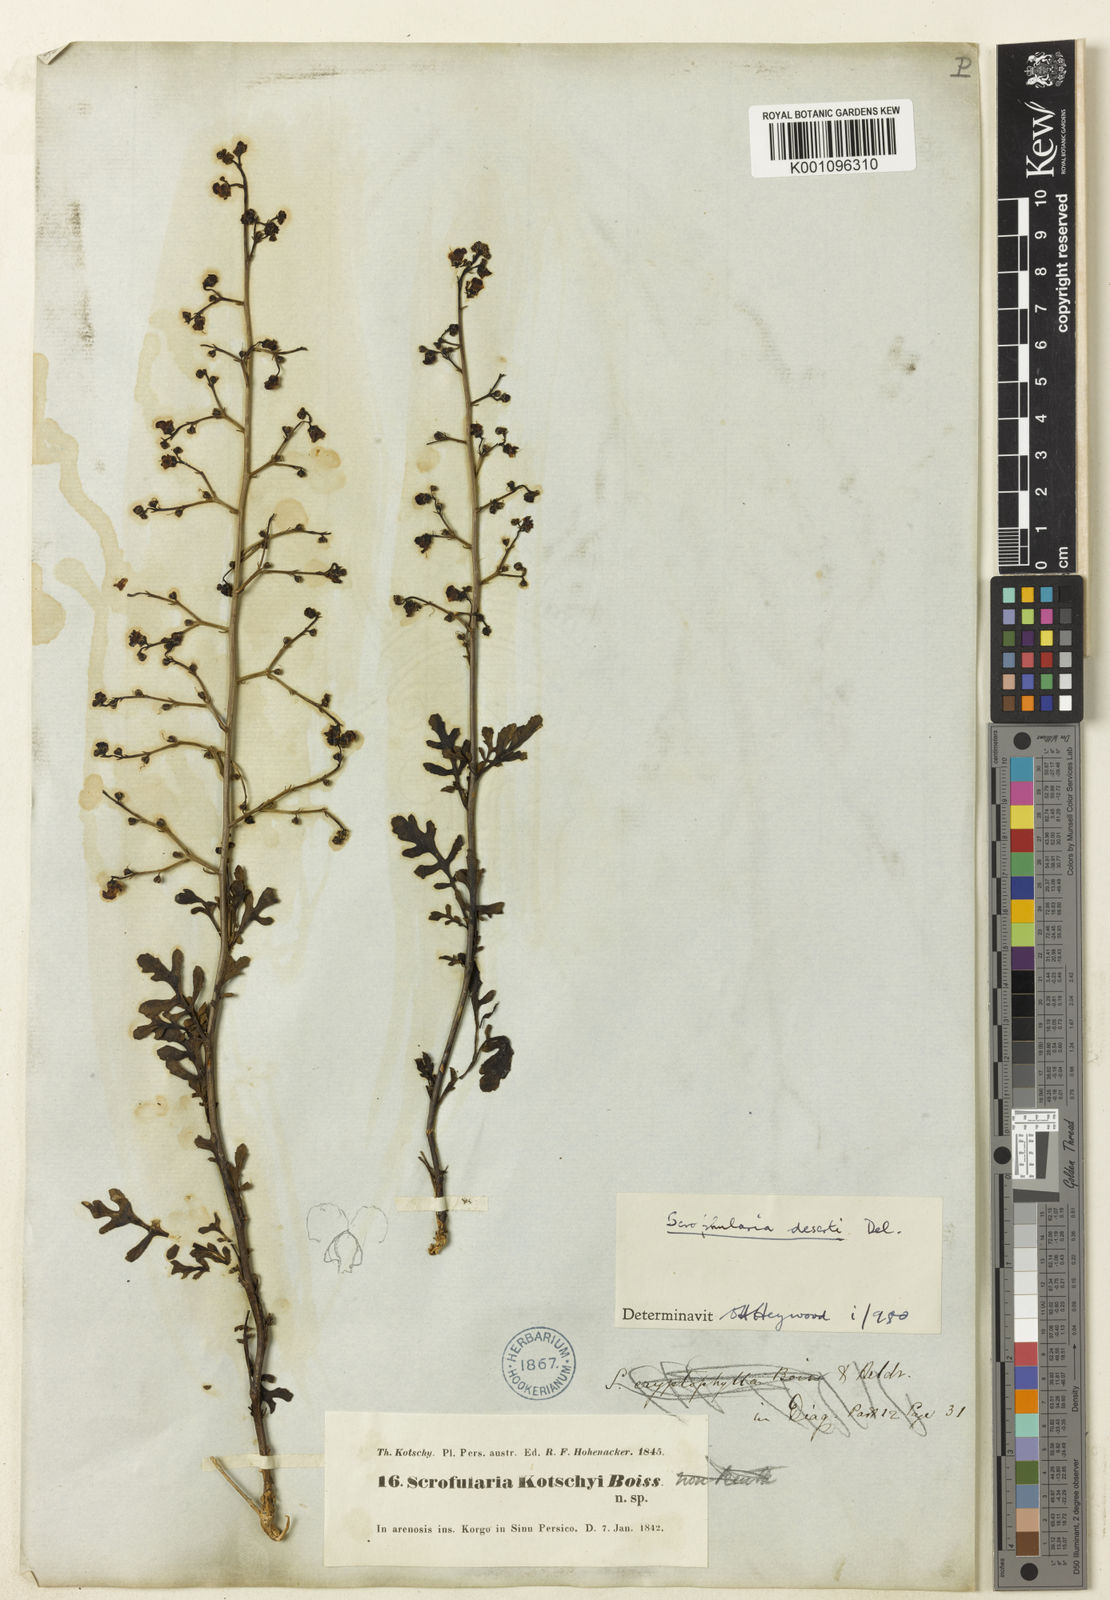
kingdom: Plantae
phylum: Tracheophyta
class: Magnoliopsida
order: Lamiales
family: Scrophulariaceae
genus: Scrophularia
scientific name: Scrophularia dentata
